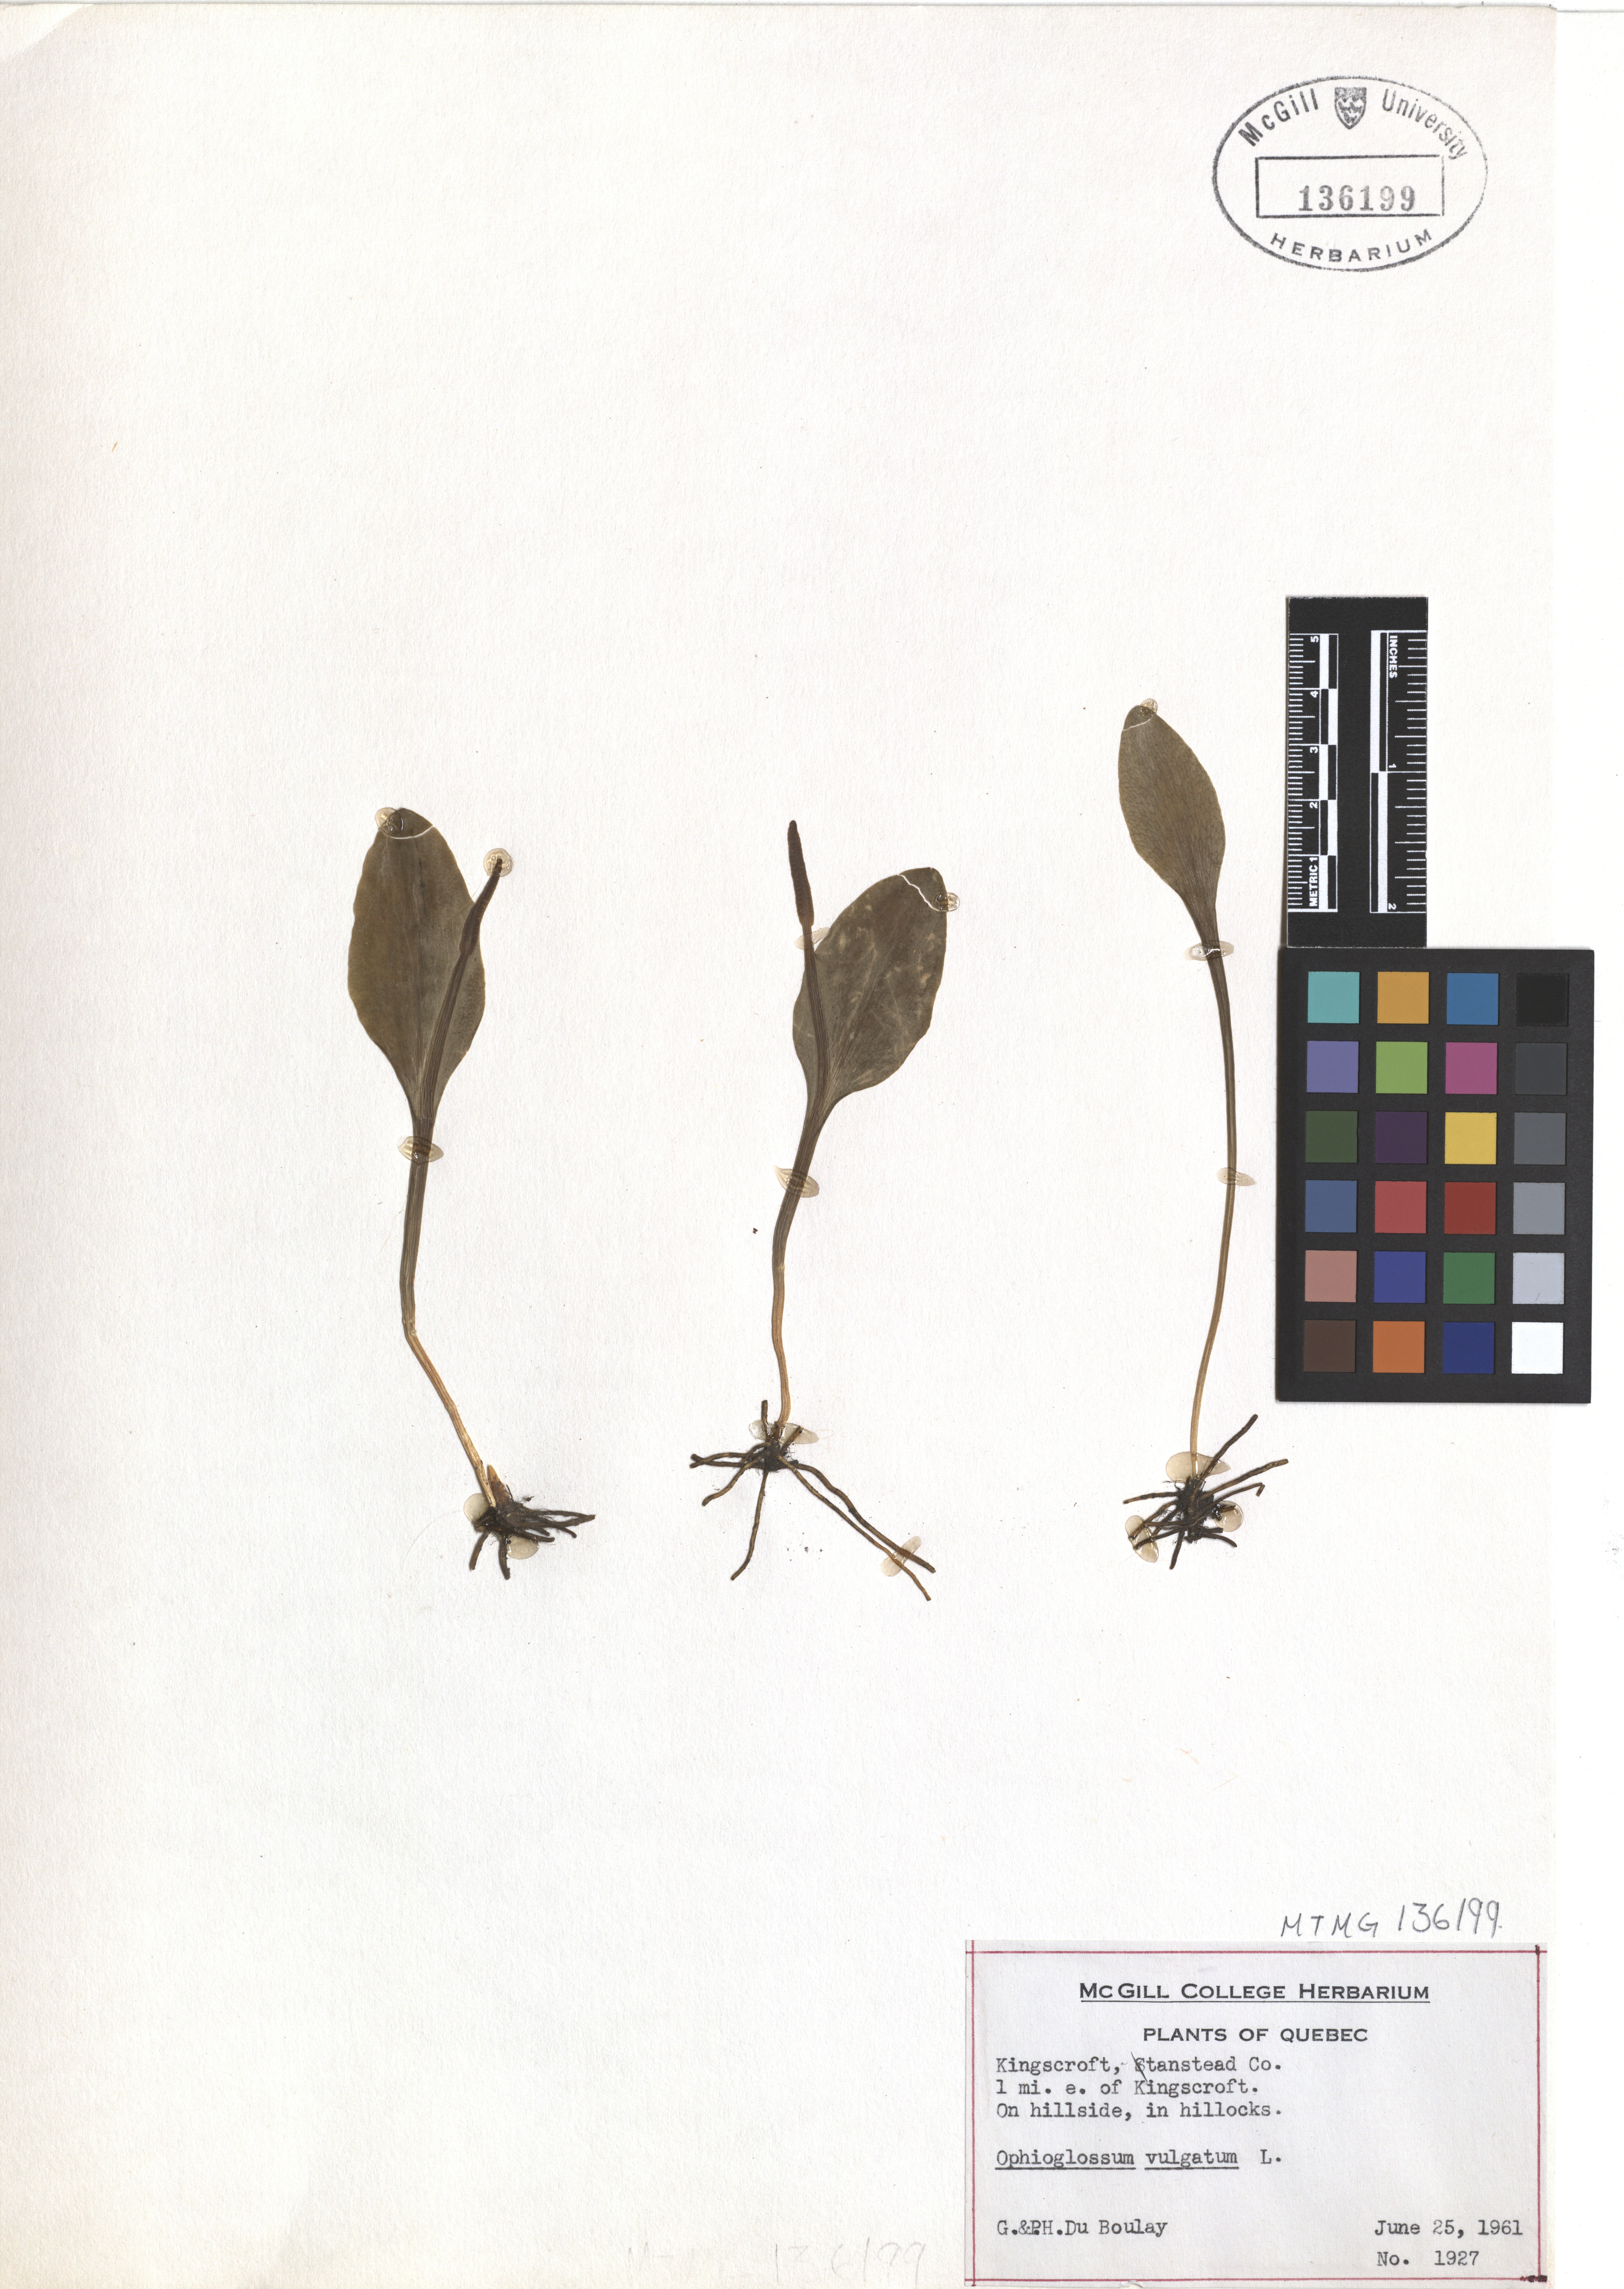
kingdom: Plantae
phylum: Tracheophyta
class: Polypodiopsida
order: Ophioglossales
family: Ophioglossaceae
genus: Ophioglossum
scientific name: Ophioglossum vulgatum
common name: Adder's-tongue
